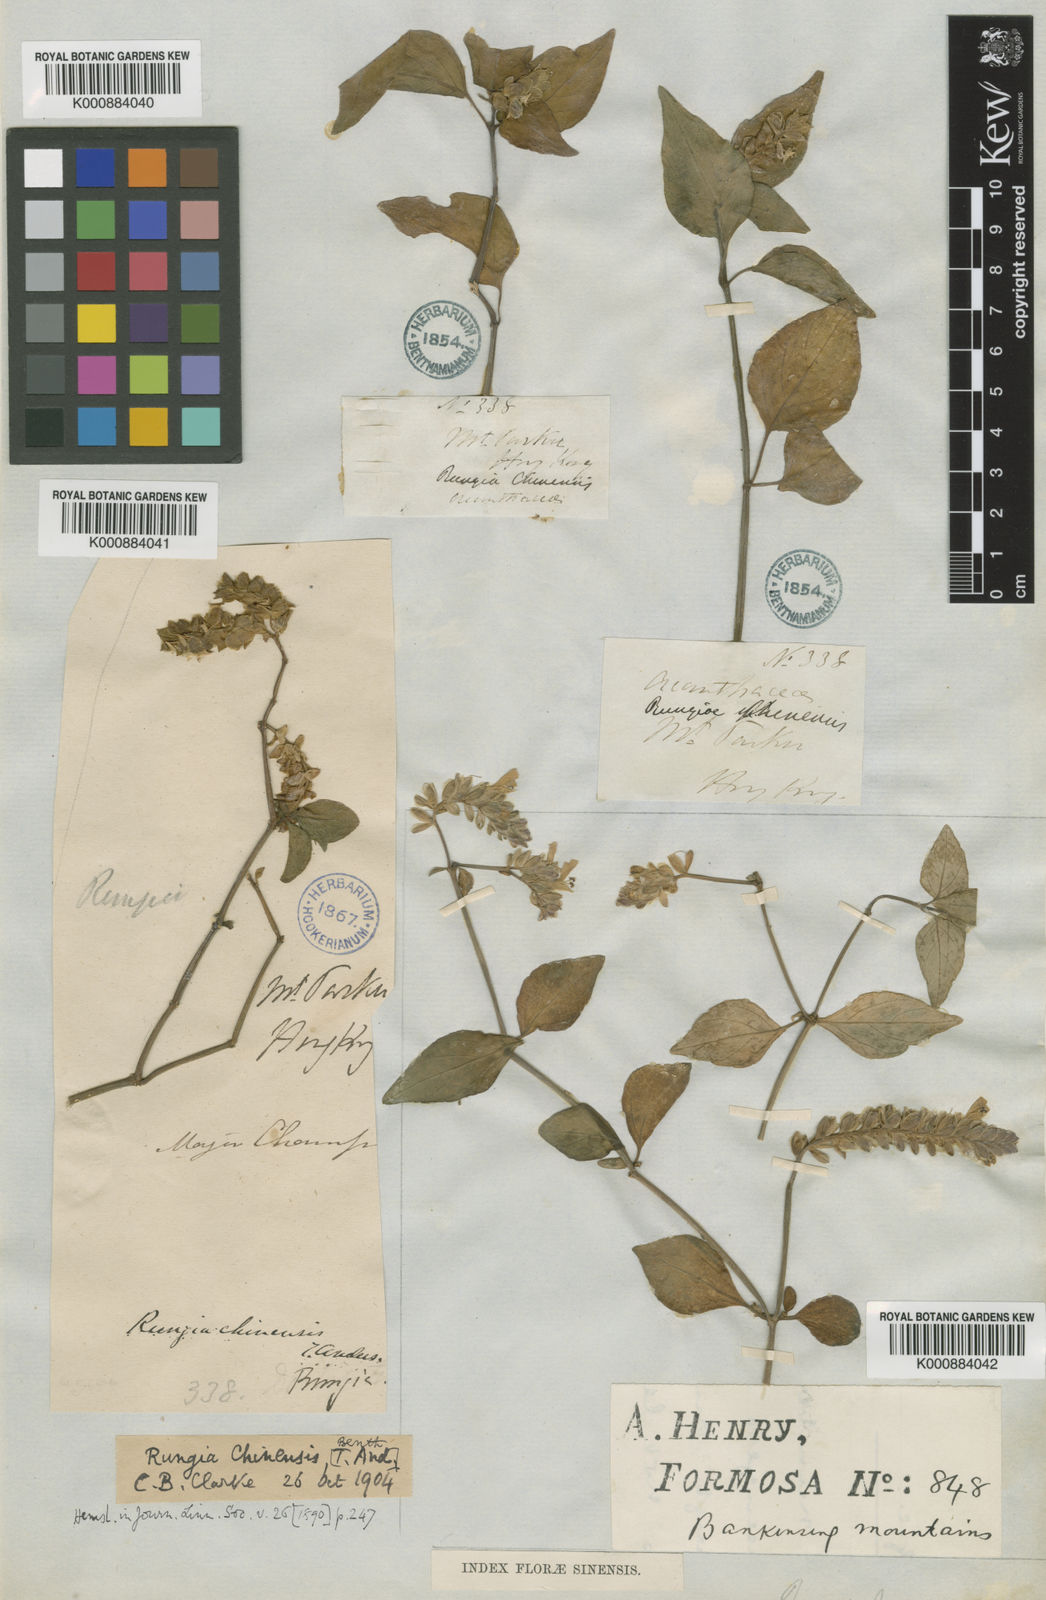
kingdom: Plantae
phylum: Tracheophyta
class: Magnoliopsida
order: Lamiales
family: Acanthaceae
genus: Justicia
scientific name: Justicia
